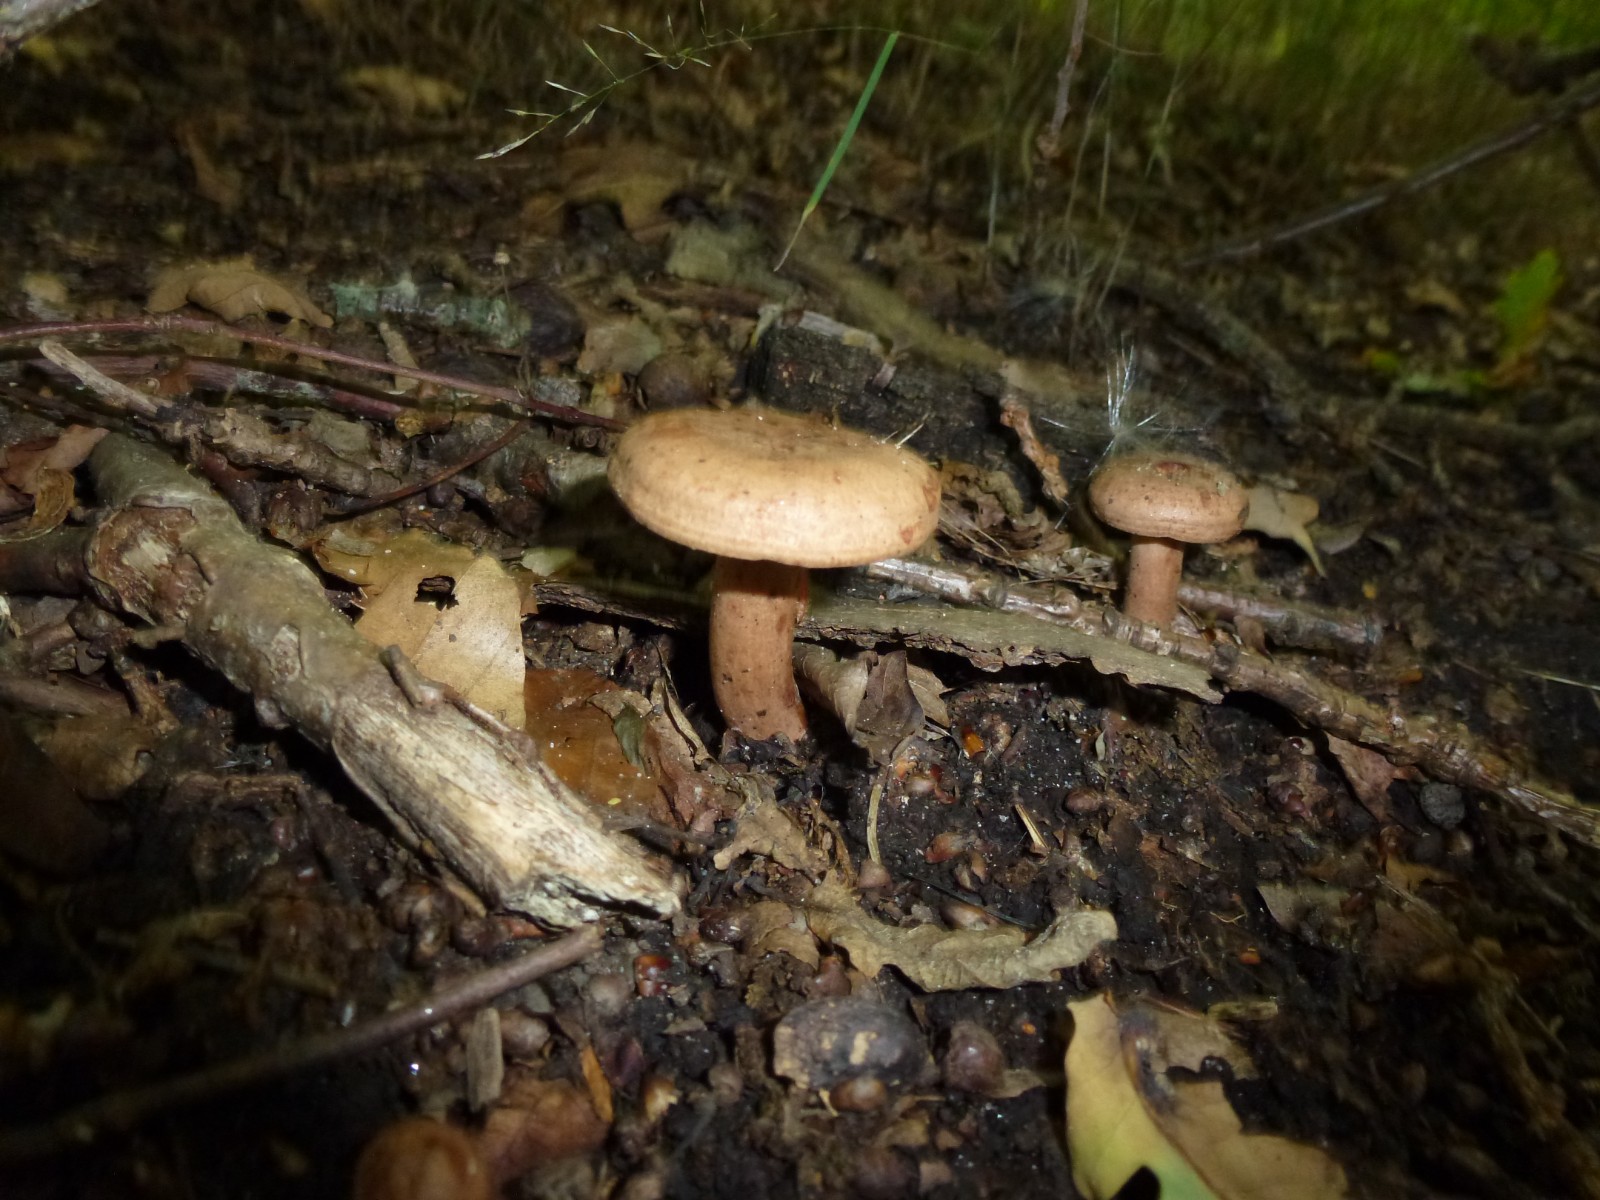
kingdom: Fungi
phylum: Basidiomycota
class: Agaricomycetes
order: Russulales
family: Russulaceae
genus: Lactarius
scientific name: Lactarius quietus
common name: ege-mælkehat
